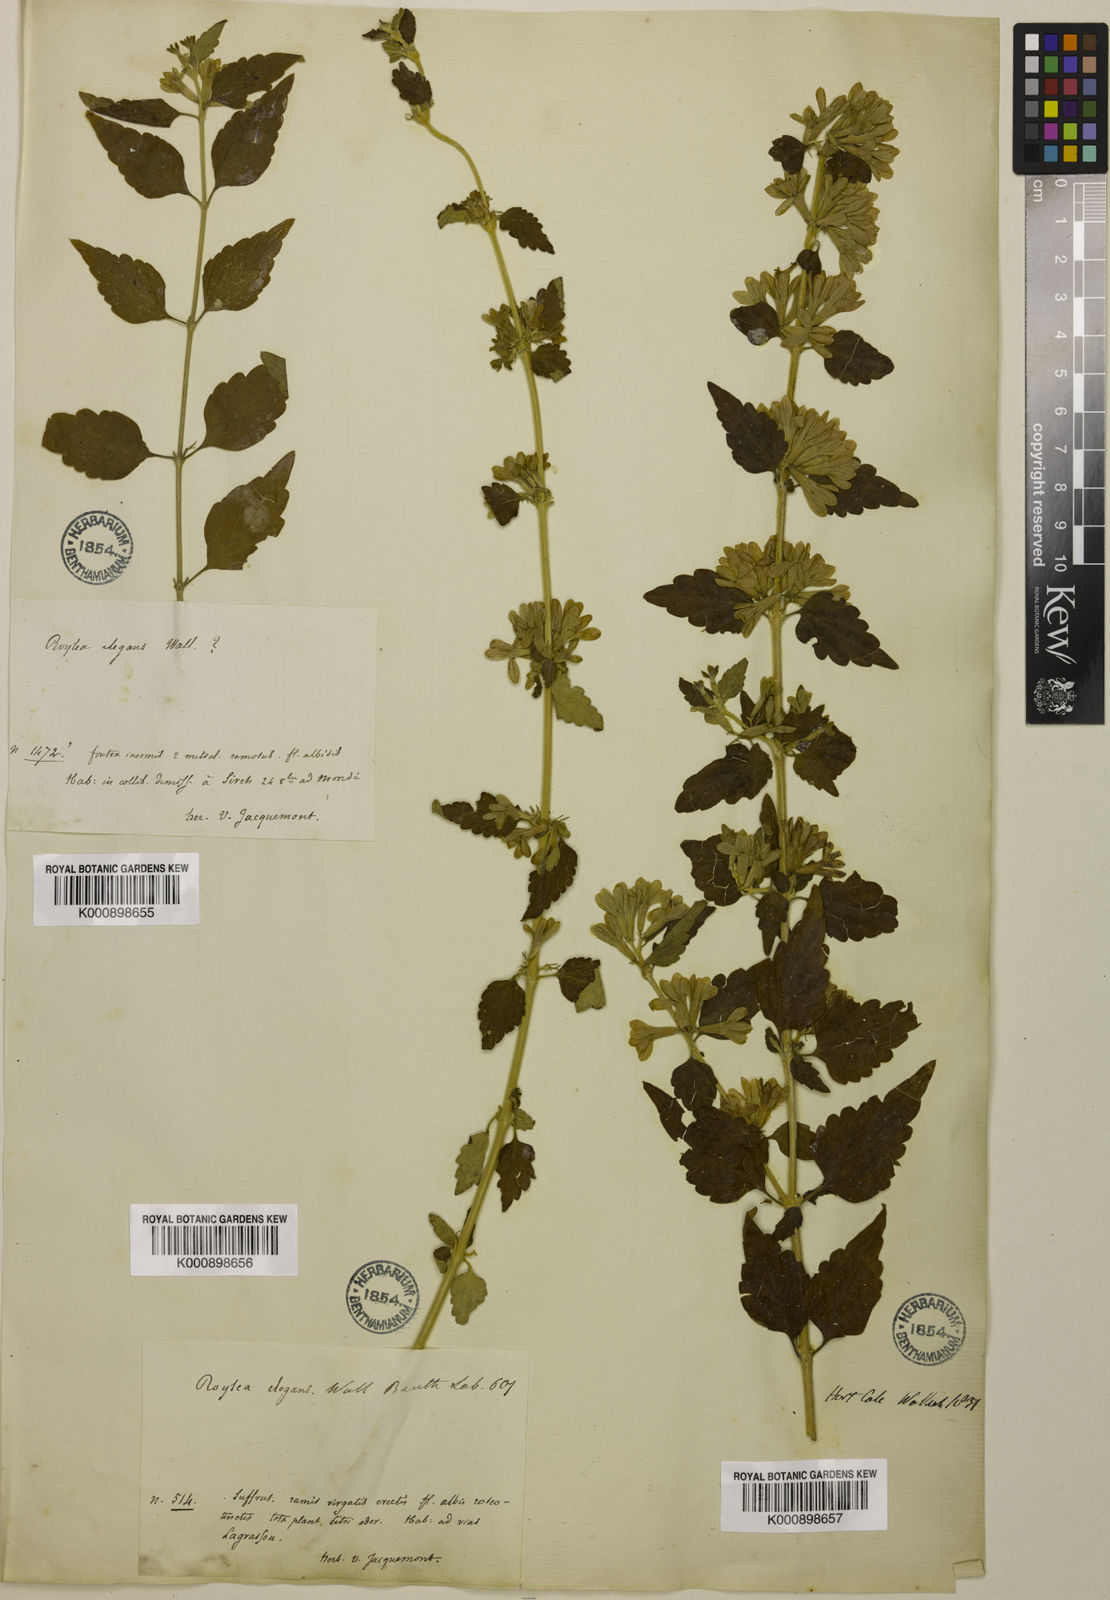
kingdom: Plantae
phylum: Tracheophyta
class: Magnoliopsida
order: Lamiales
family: Lamiaceae
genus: Roylea
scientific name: Roylea
